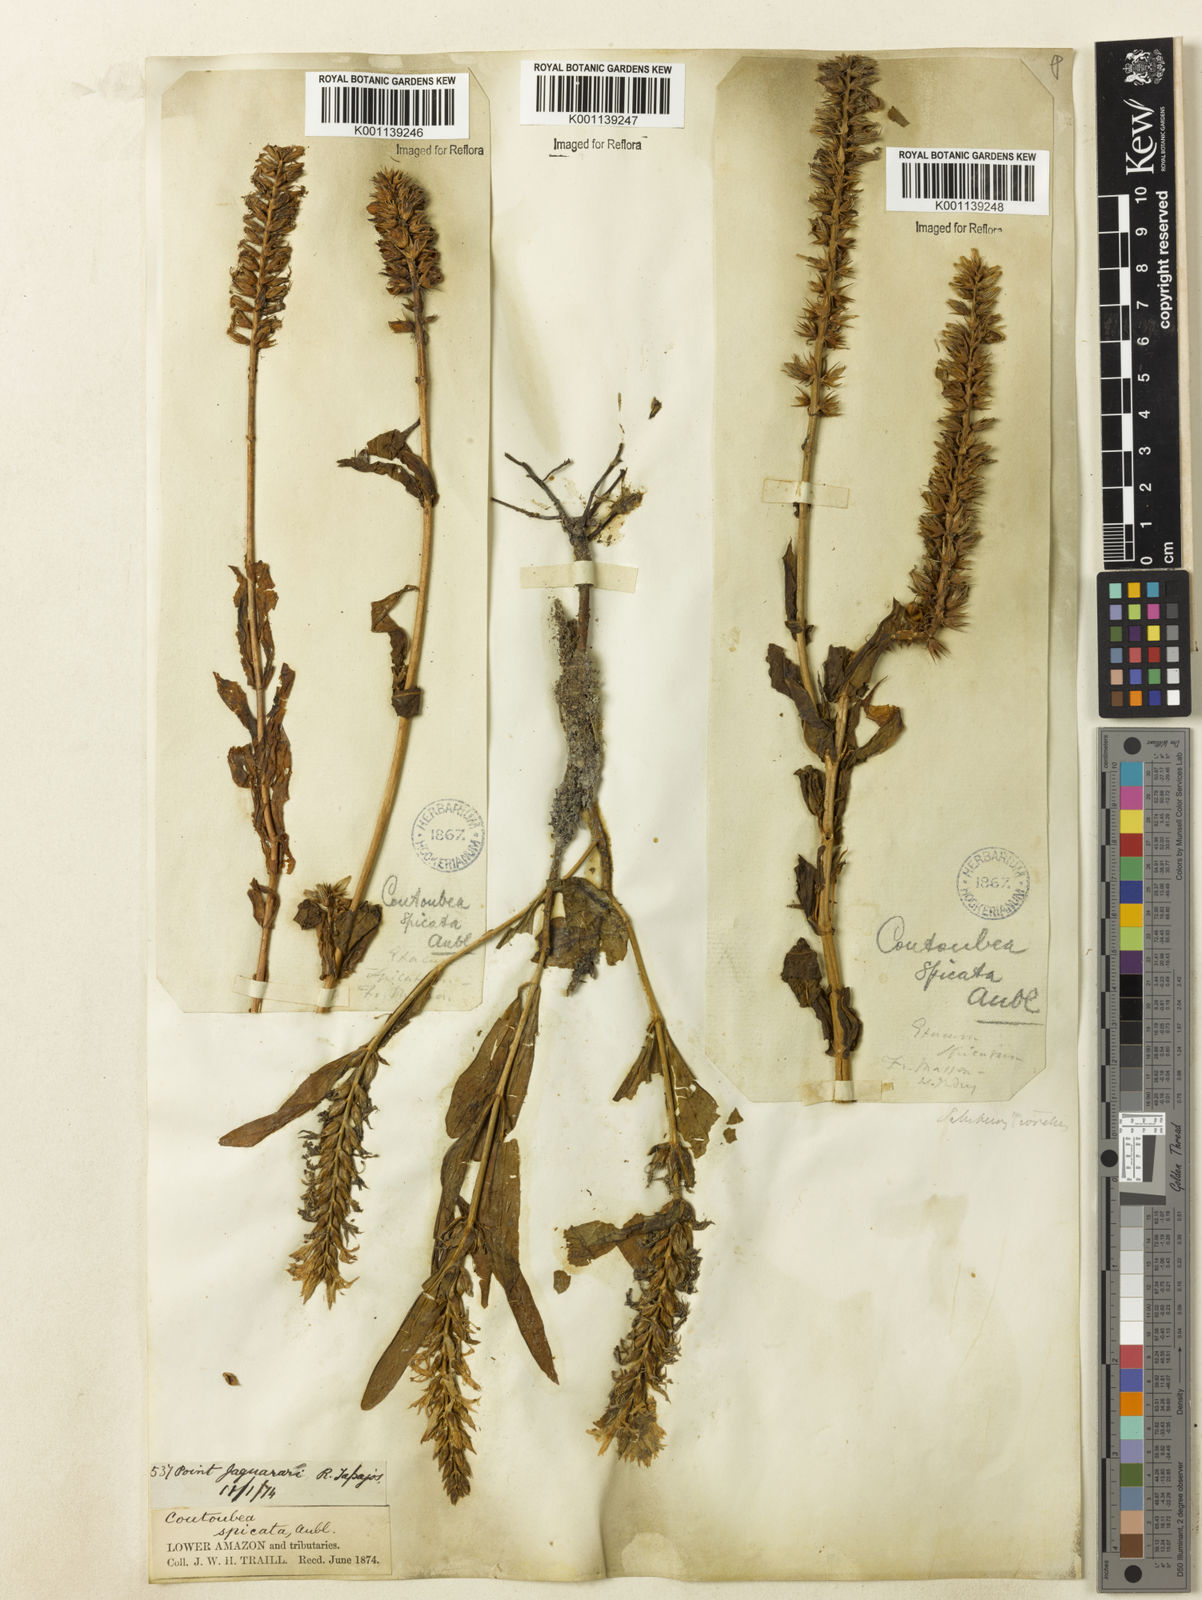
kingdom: Plantae
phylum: Tracheophyta
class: Magnoliopsida
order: Gentianales
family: Gentianaceae
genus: Coutoubea
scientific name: Coutoubea spicata
